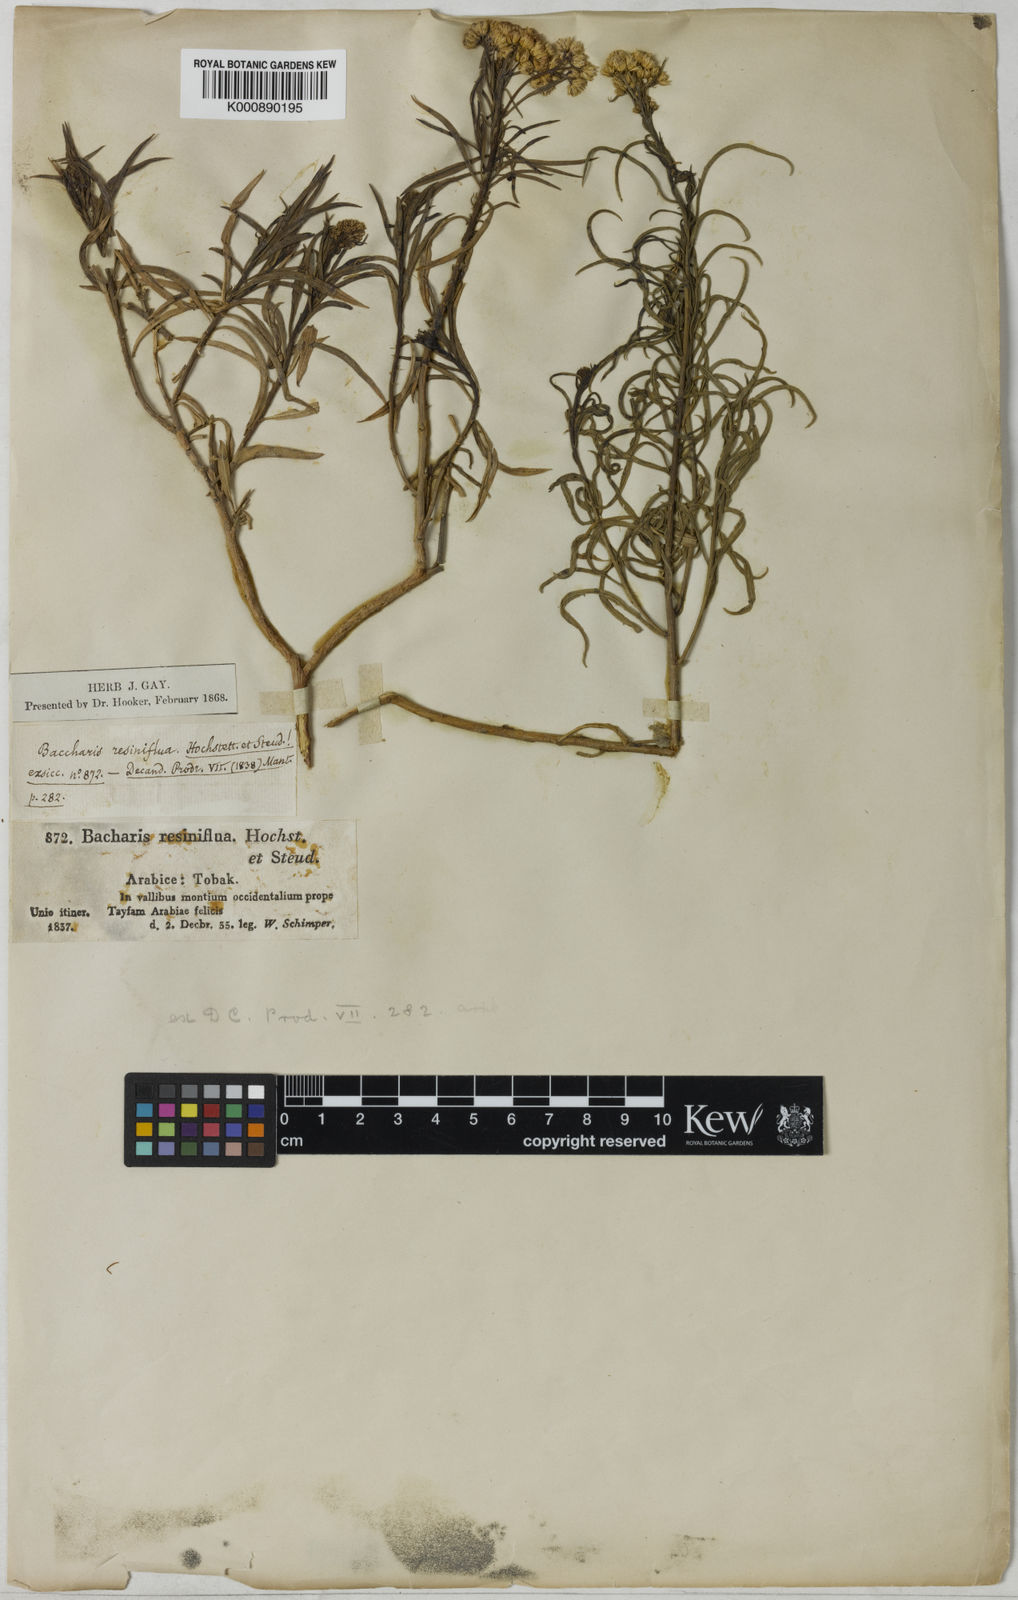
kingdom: Plantae
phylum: Tracheophyta
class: Magnoliopsida
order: Asterales
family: Asteraceae
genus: Psiadia
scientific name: Psiadia punctulata
